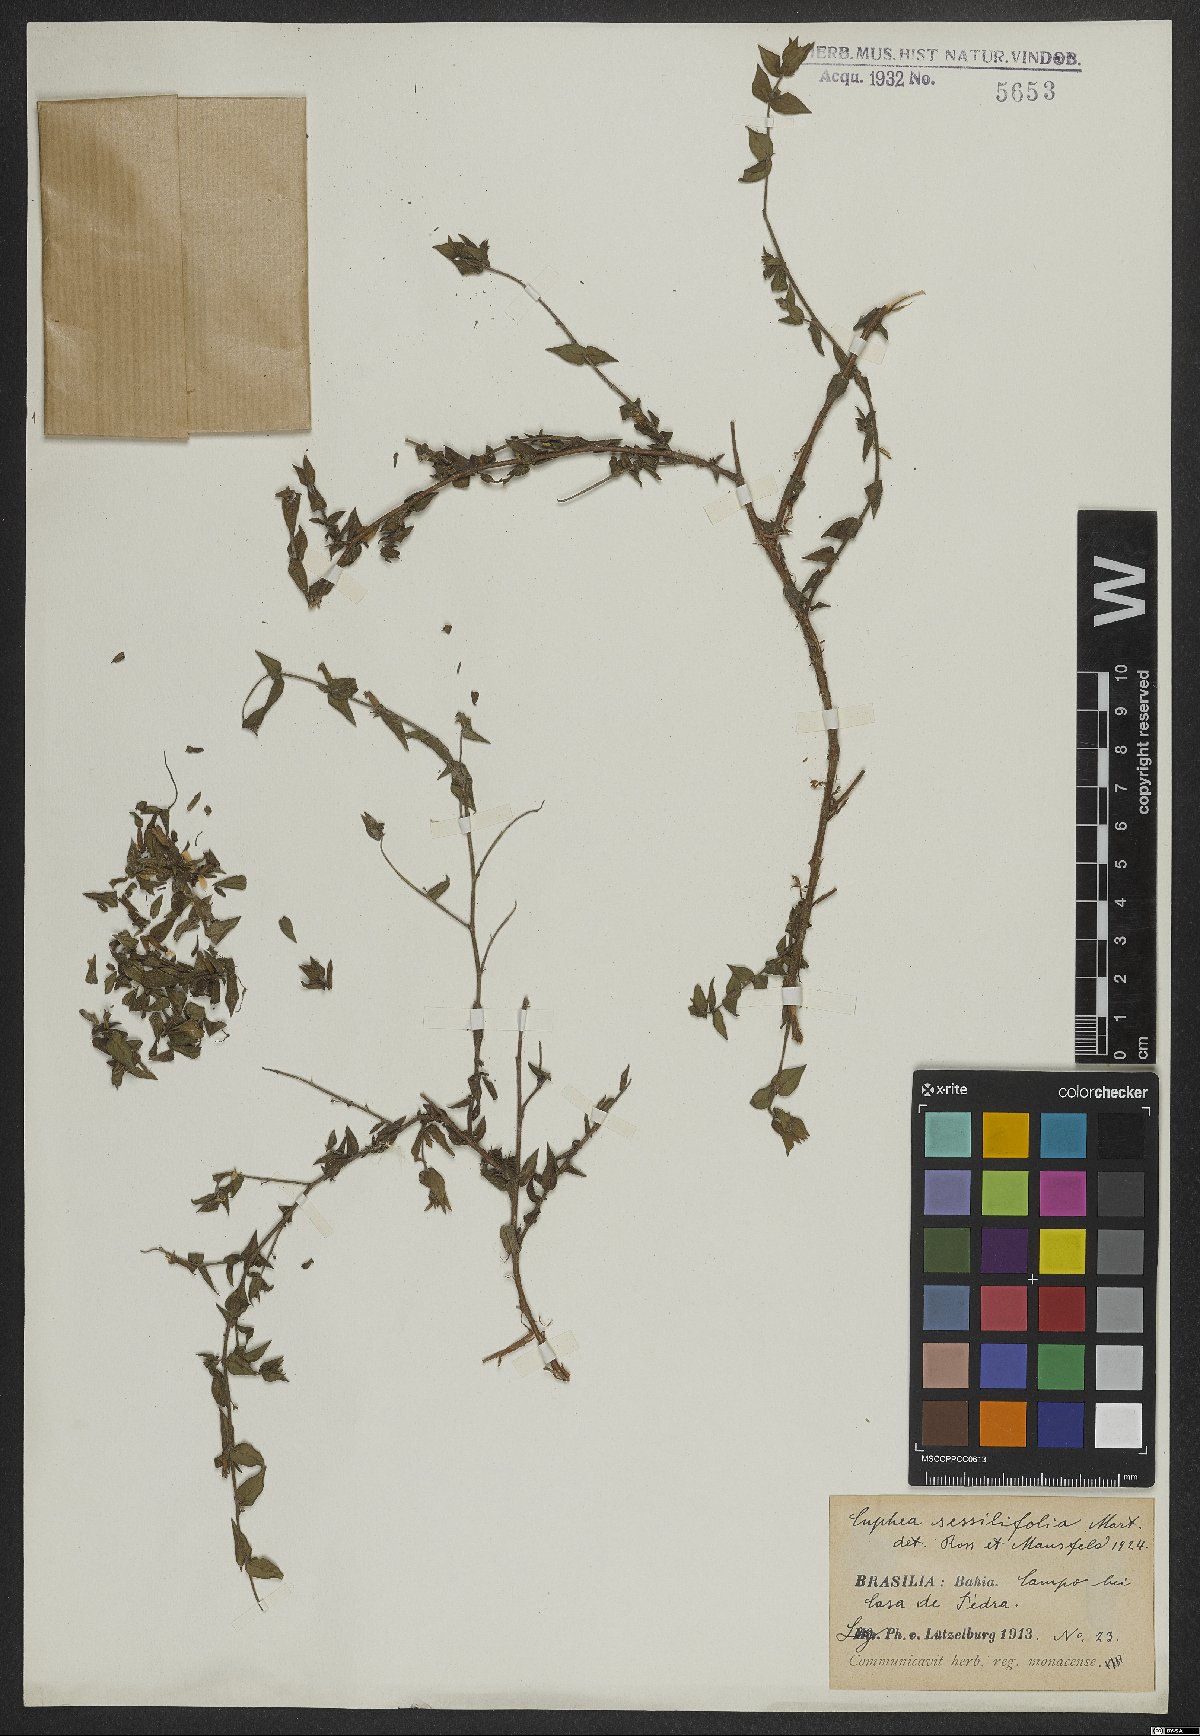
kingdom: Plantae
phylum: Tracheophyta
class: Magnoliopsida
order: Myrtales
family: Lythraceae
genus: Cuphea
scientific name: Cuphea sessilifolia
